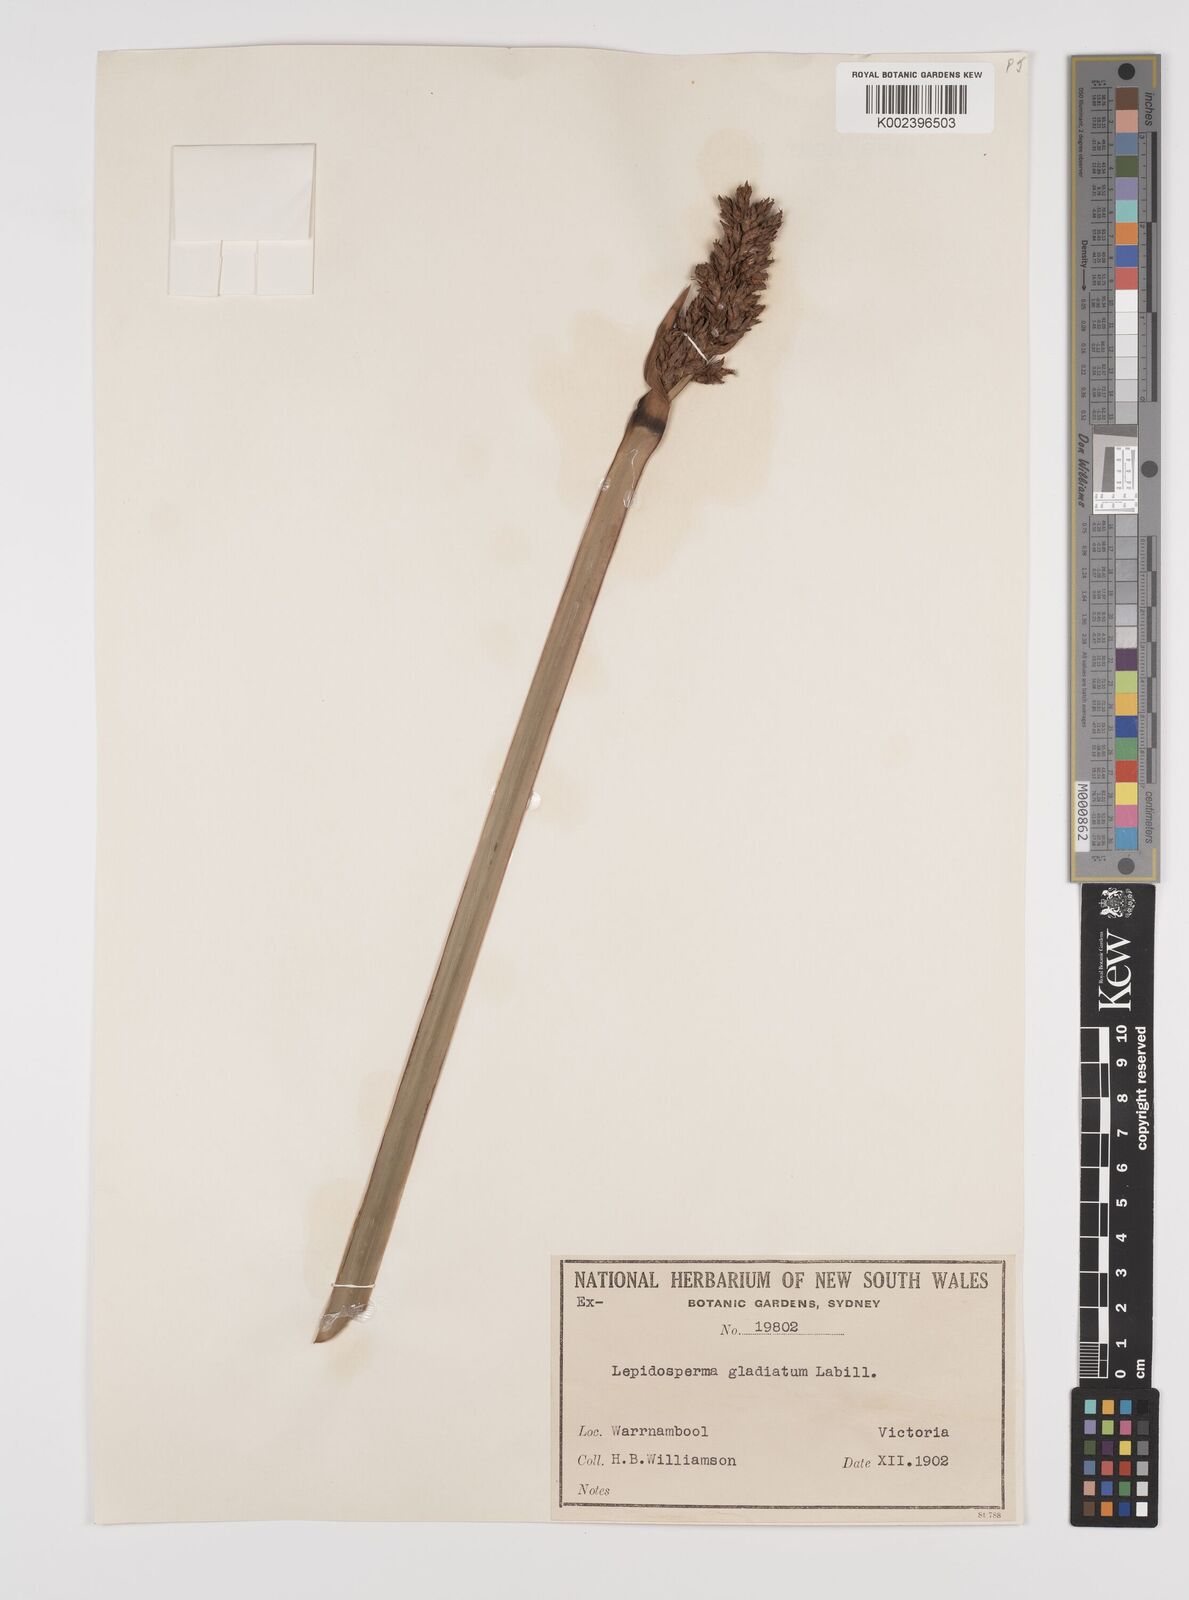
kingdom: Plantae
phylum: Tracheophyta
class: Liliopsida
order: Poales
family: Cyperaceae
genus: Lepidosperma
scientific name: Lepidosperma gladiatum
